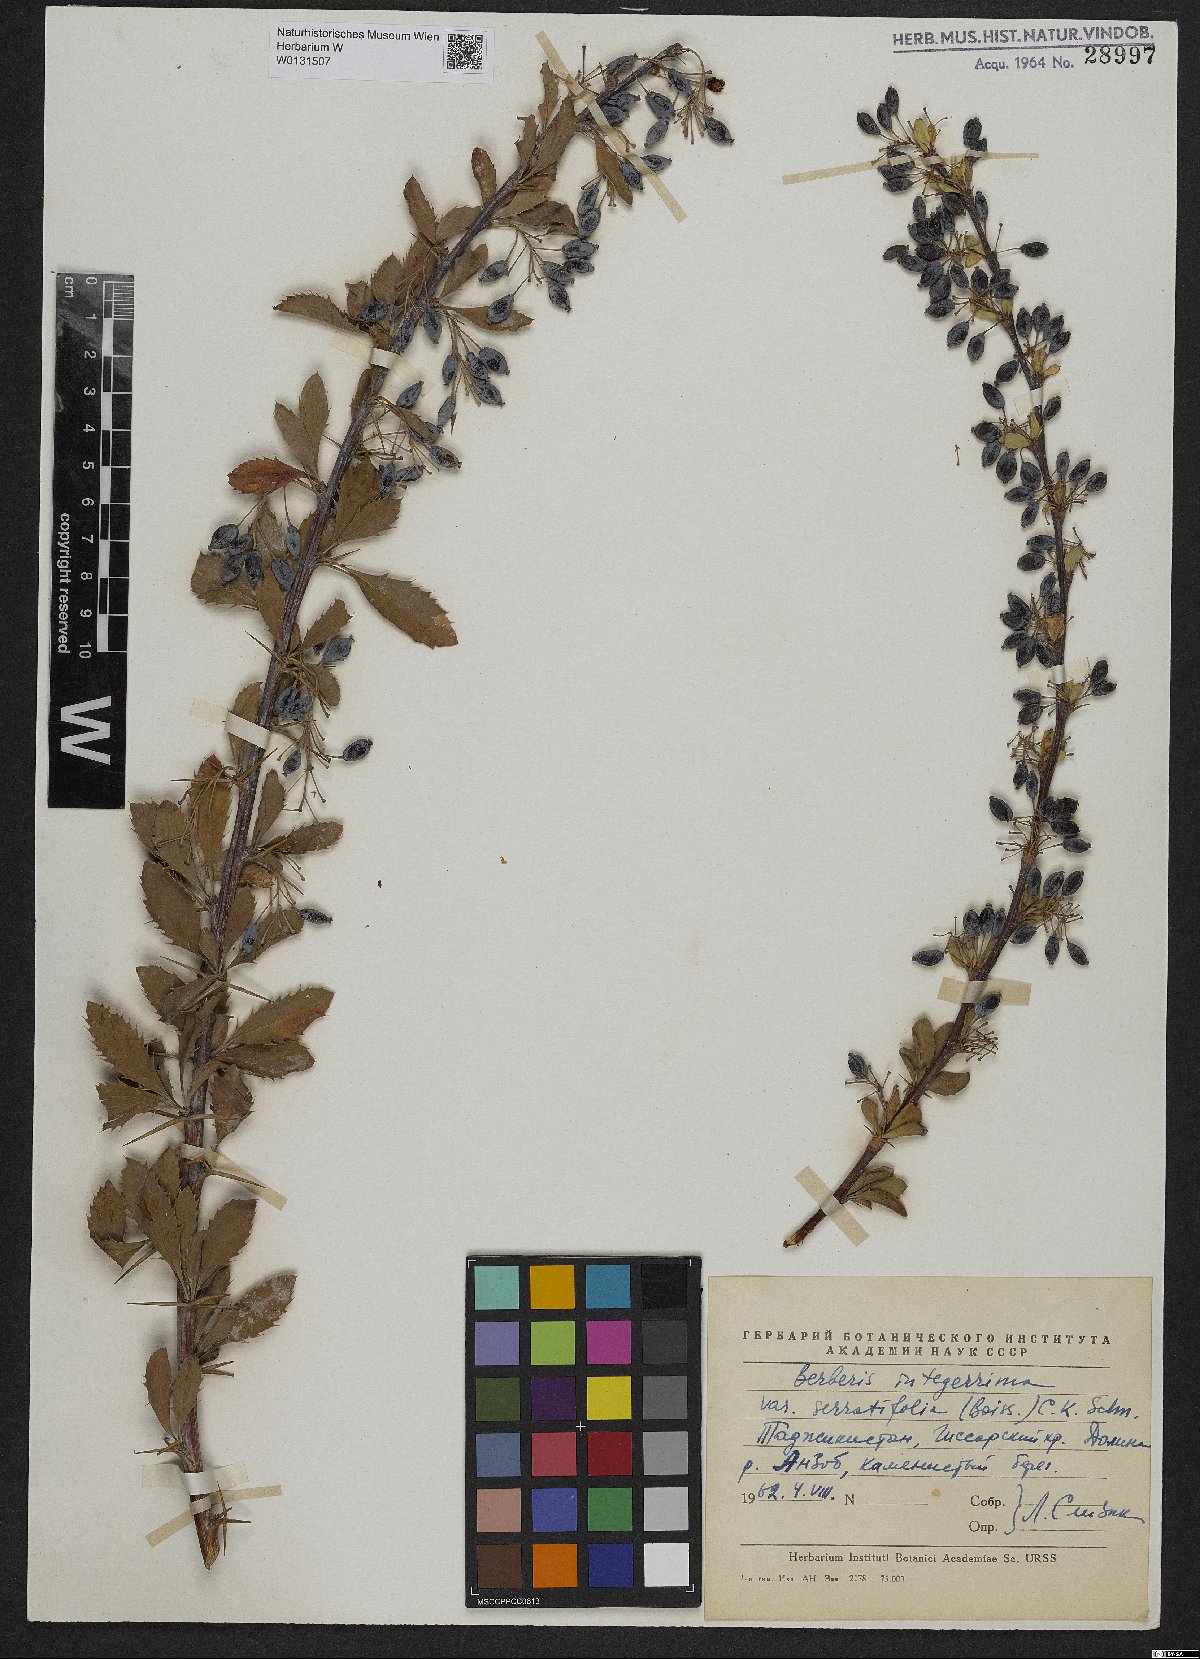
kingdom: Plantae
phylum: Tracheophyta
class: Magnoliopsida
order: Ranunculales
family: Berberidaceae
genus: Berberis
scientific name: Berberis integerrima
